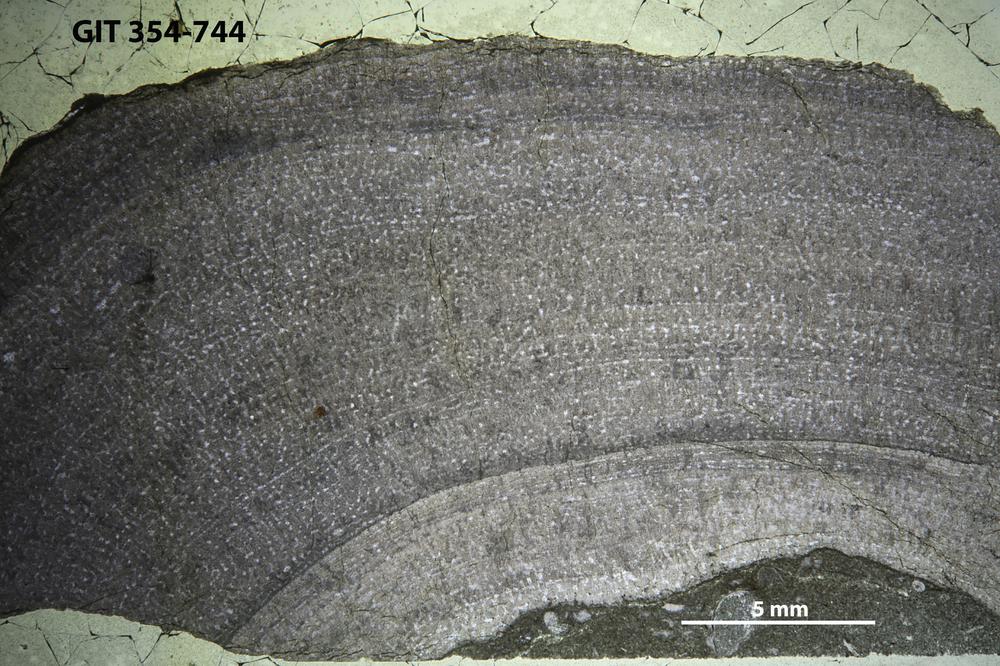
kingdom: Animalia
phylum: Porifera
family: Stromatoporidae
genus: Stromatopora
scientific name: Stromatopora
